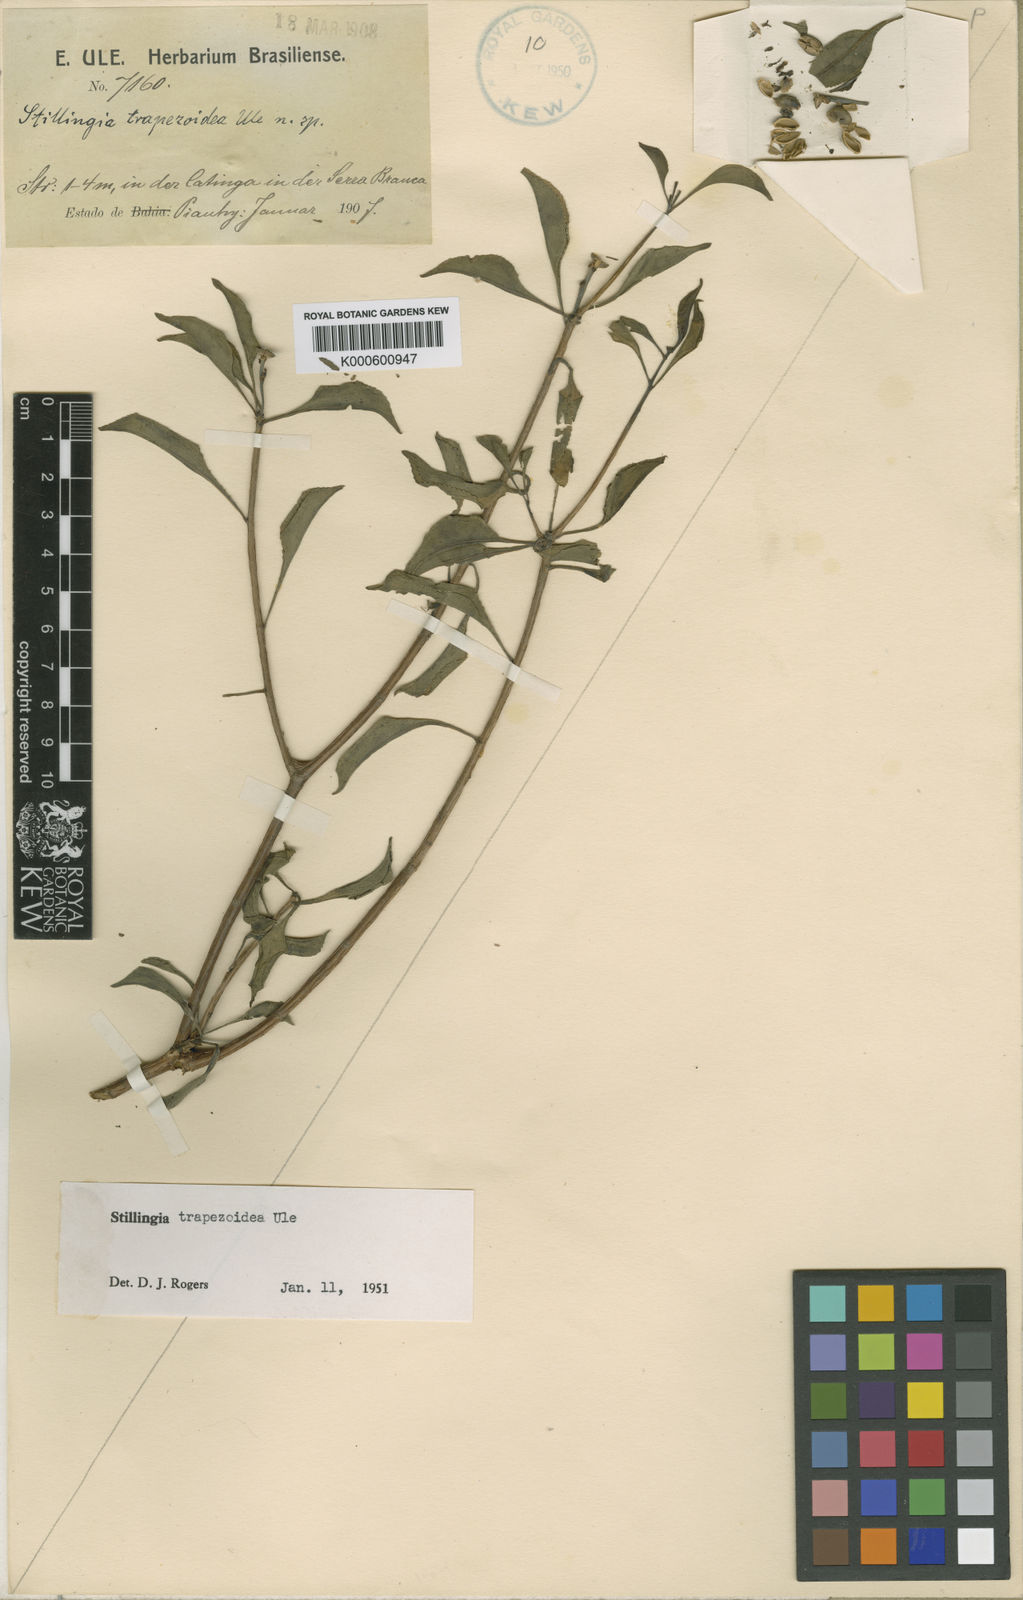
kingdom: Plantae
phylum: Tracheophyta
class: Magnoliopsida
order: Malpighiales
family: Euphorbiaceae
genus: Stillingia
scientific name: Stillingia trapezoidea
